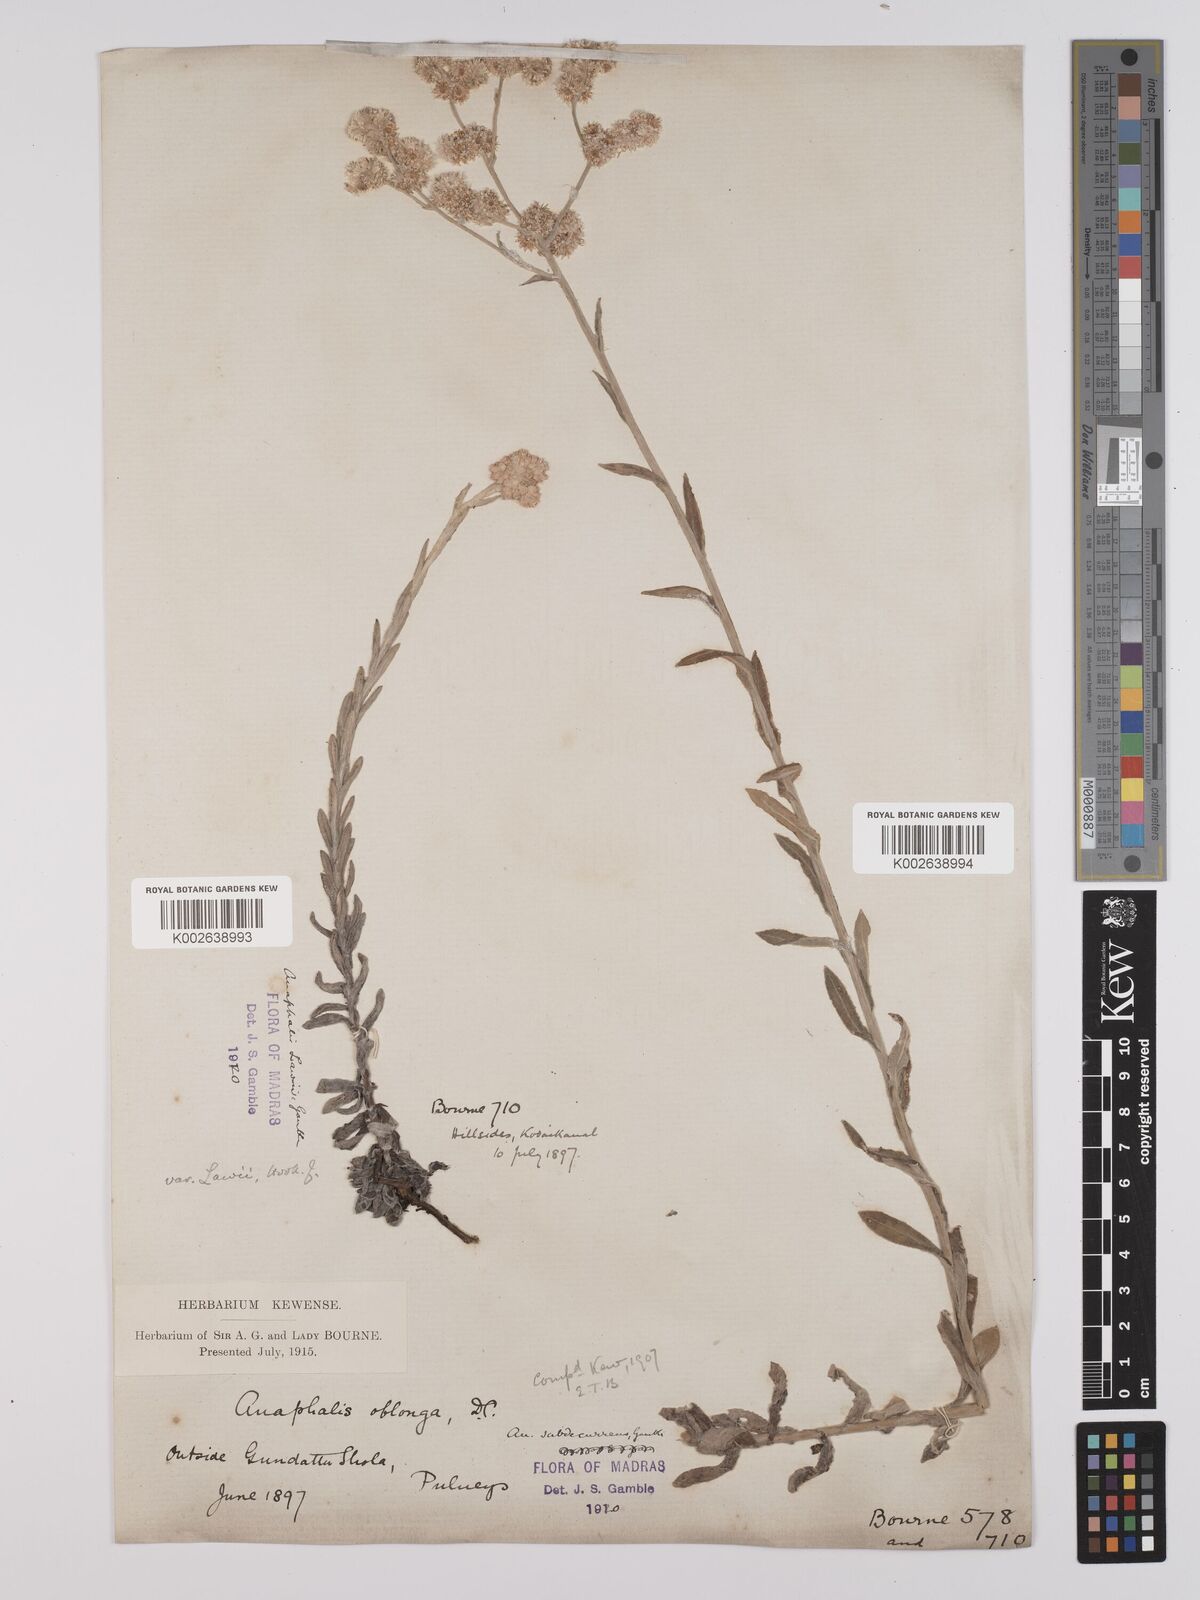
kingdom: Plantae
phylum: Tracheophyta
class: Magnoliopsida
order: Asterales
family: Asteraceae
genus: Anaphalis
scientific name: Anaphalis subdecurrens
